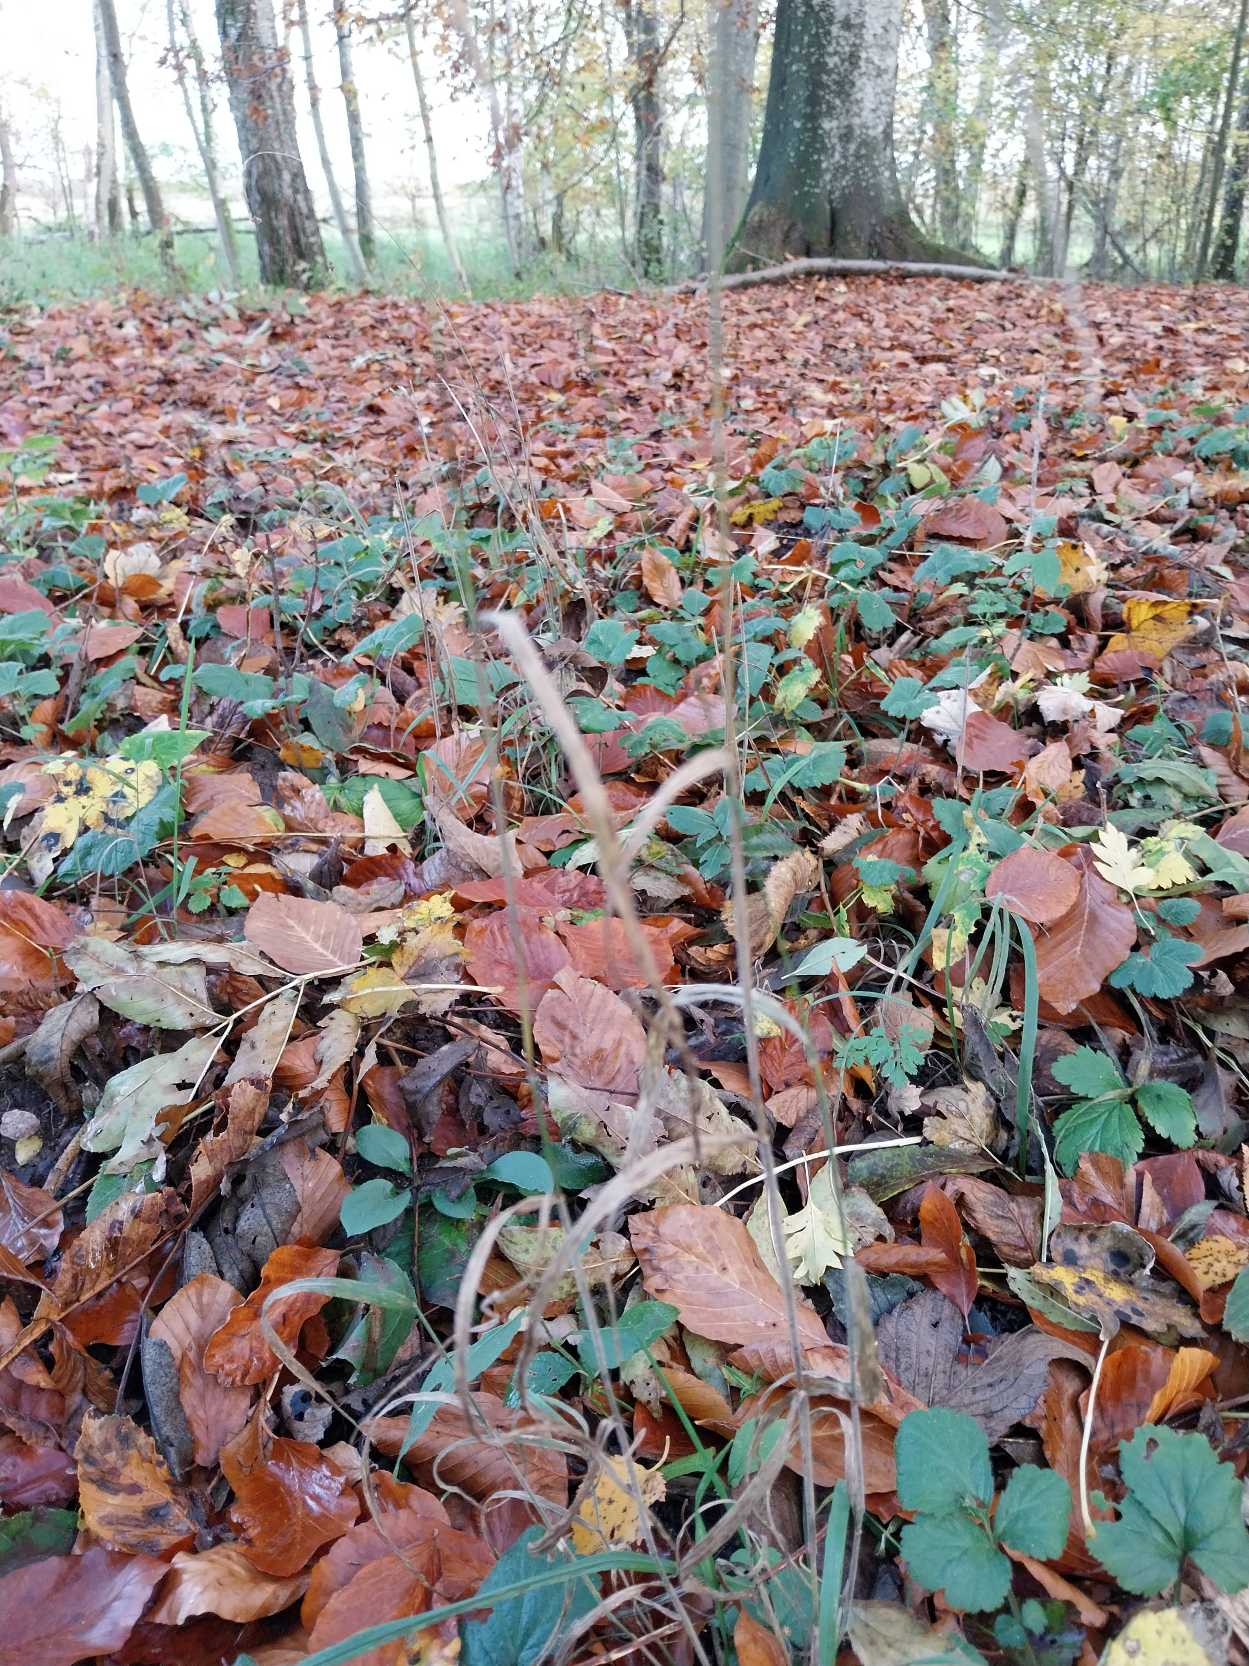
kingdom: Plantae
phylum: Tracheophyta
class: Liliopsida
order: Poales
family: Poaceae
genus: Elymus
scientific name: Elymus caninus
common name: Hundekvik
